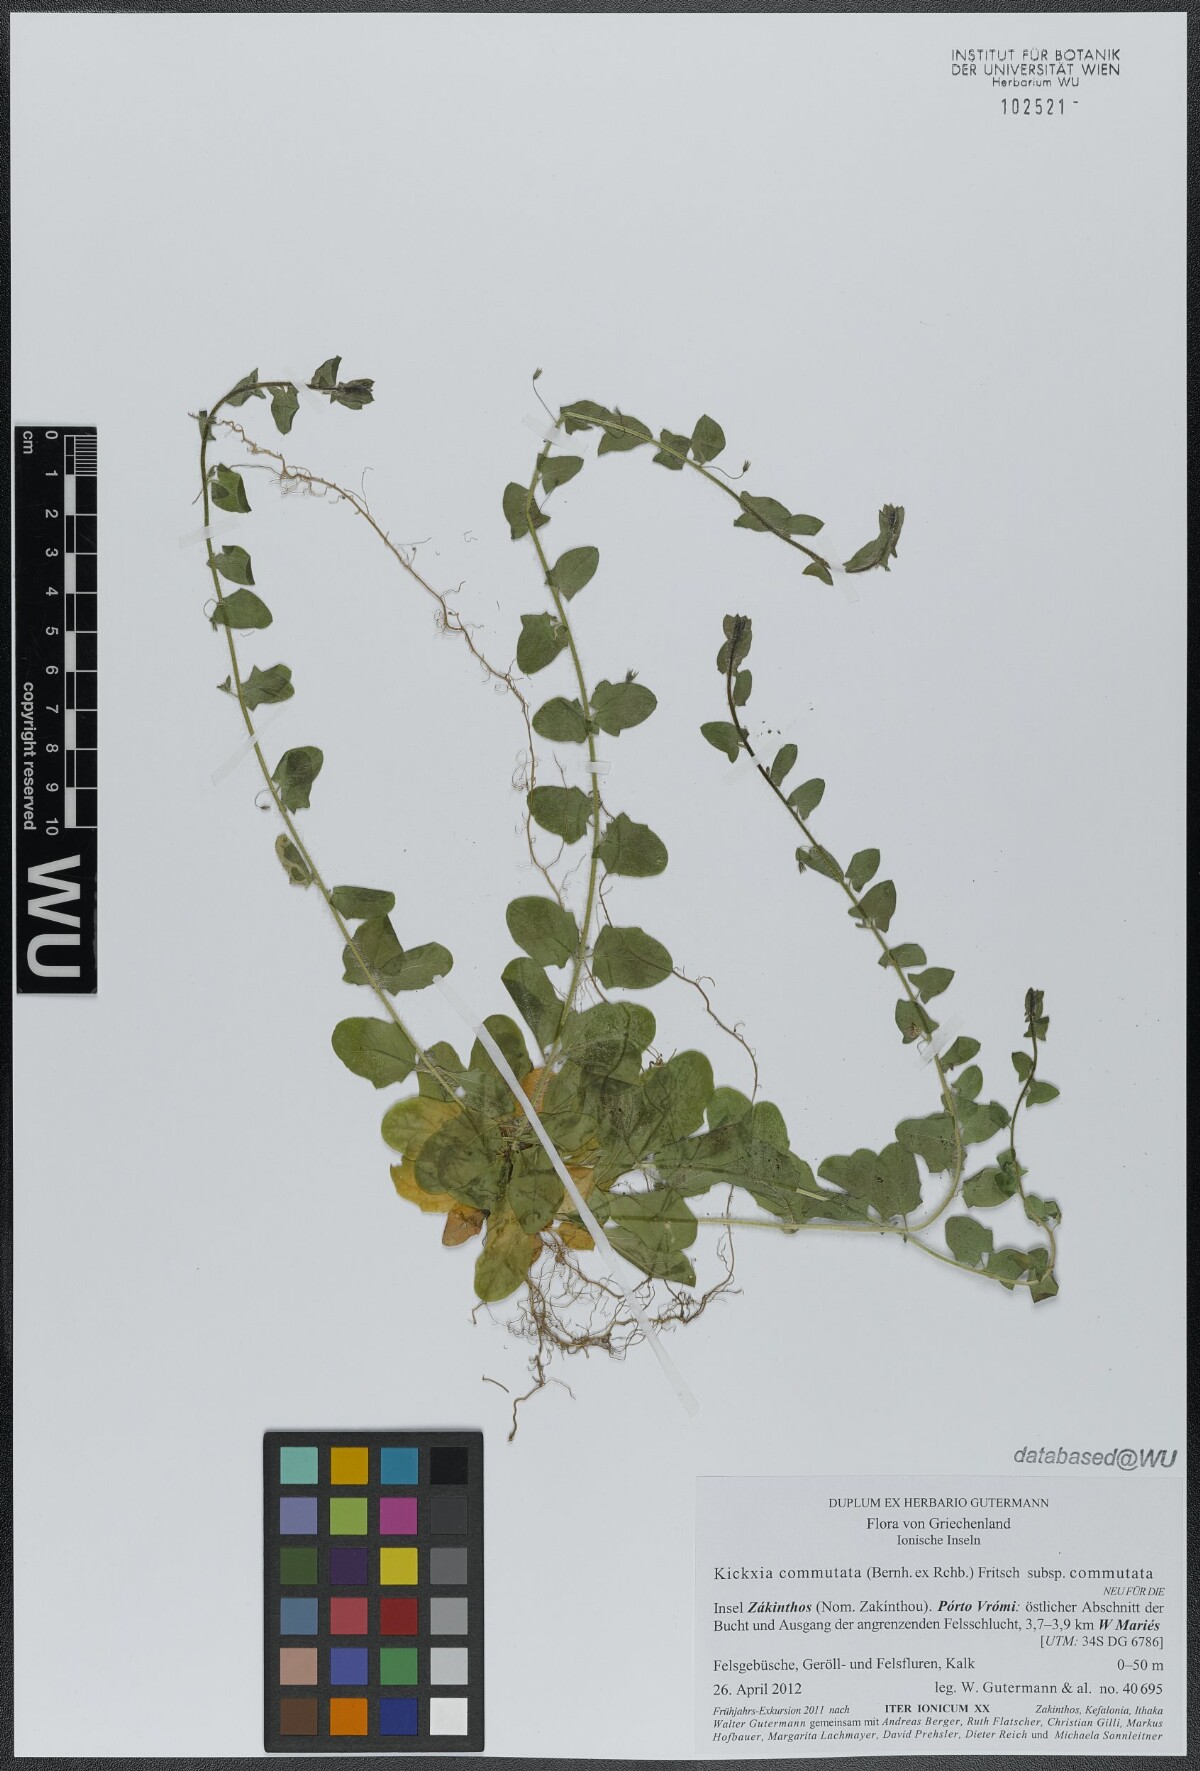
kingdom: Plantae
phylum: Tracheophyta
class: Magnoliopsida
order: Lamiales
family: Plantaginaceae
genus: Kickxia
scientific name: Kickxia commutata
